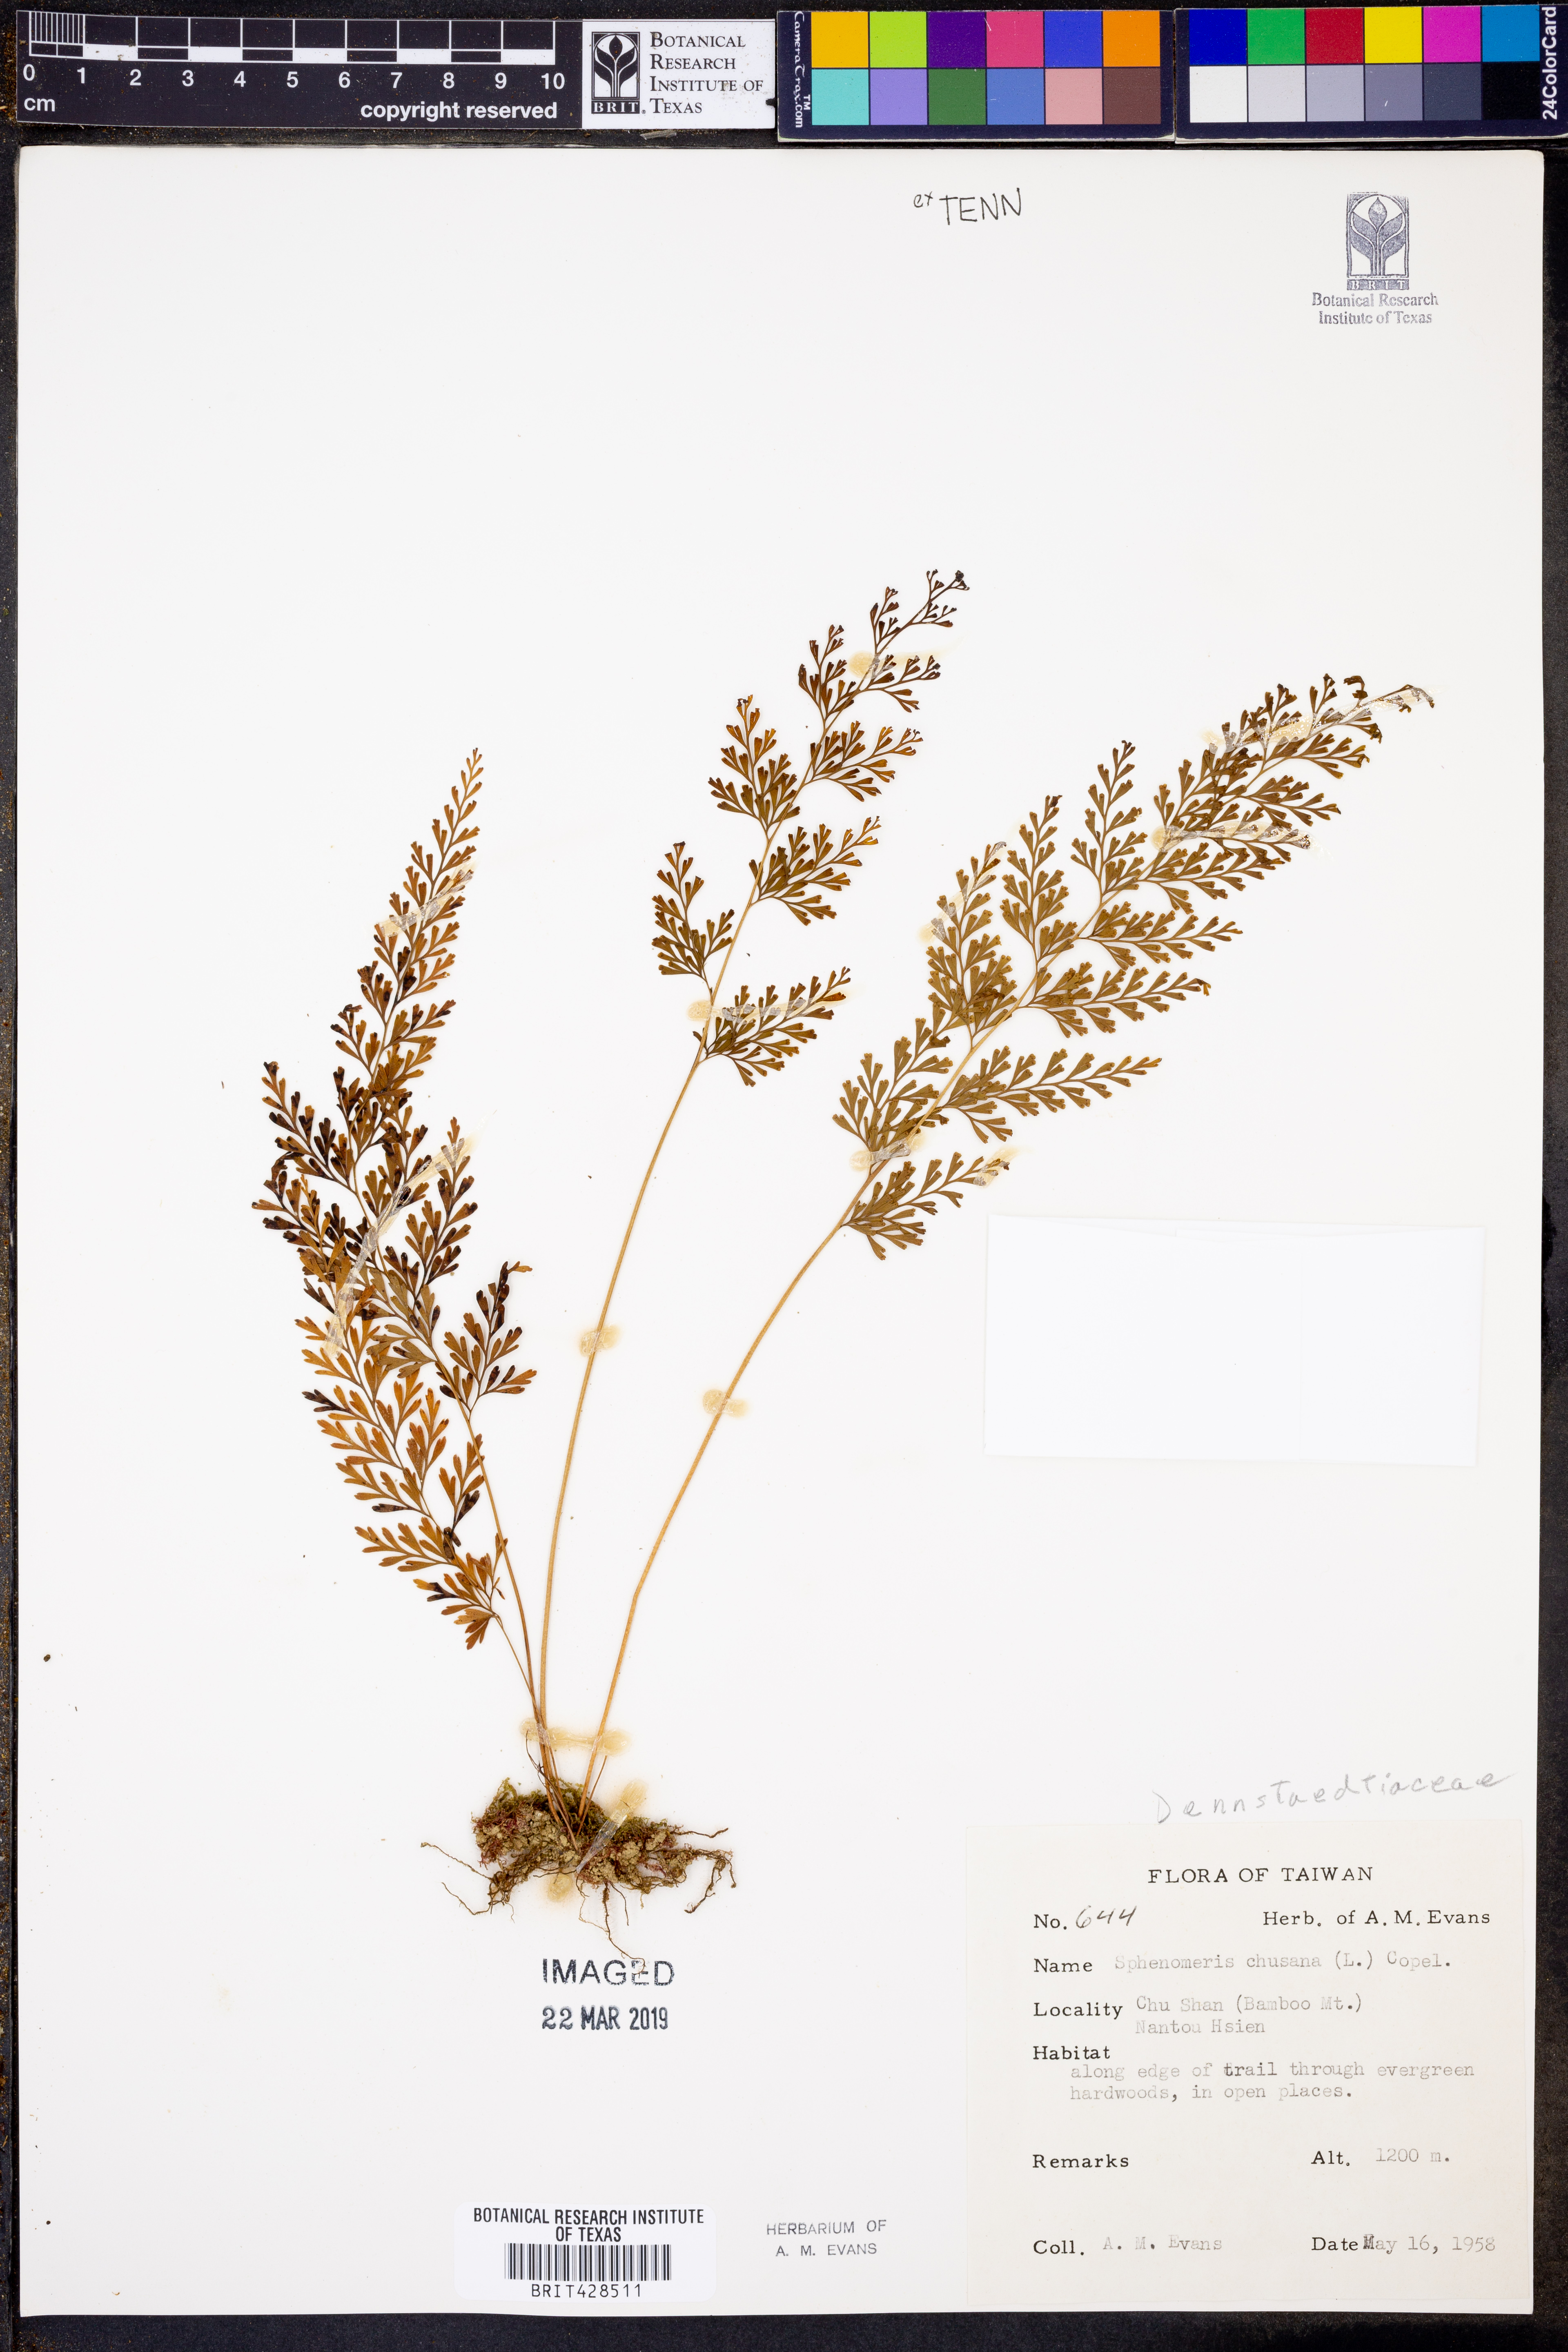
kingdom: Plantae
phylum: Tracheophyta
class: Polypodiopsida
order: Polypodiales
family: Lindsaeaceae
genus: Odontosoria
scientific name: Odontosoria chinensis
